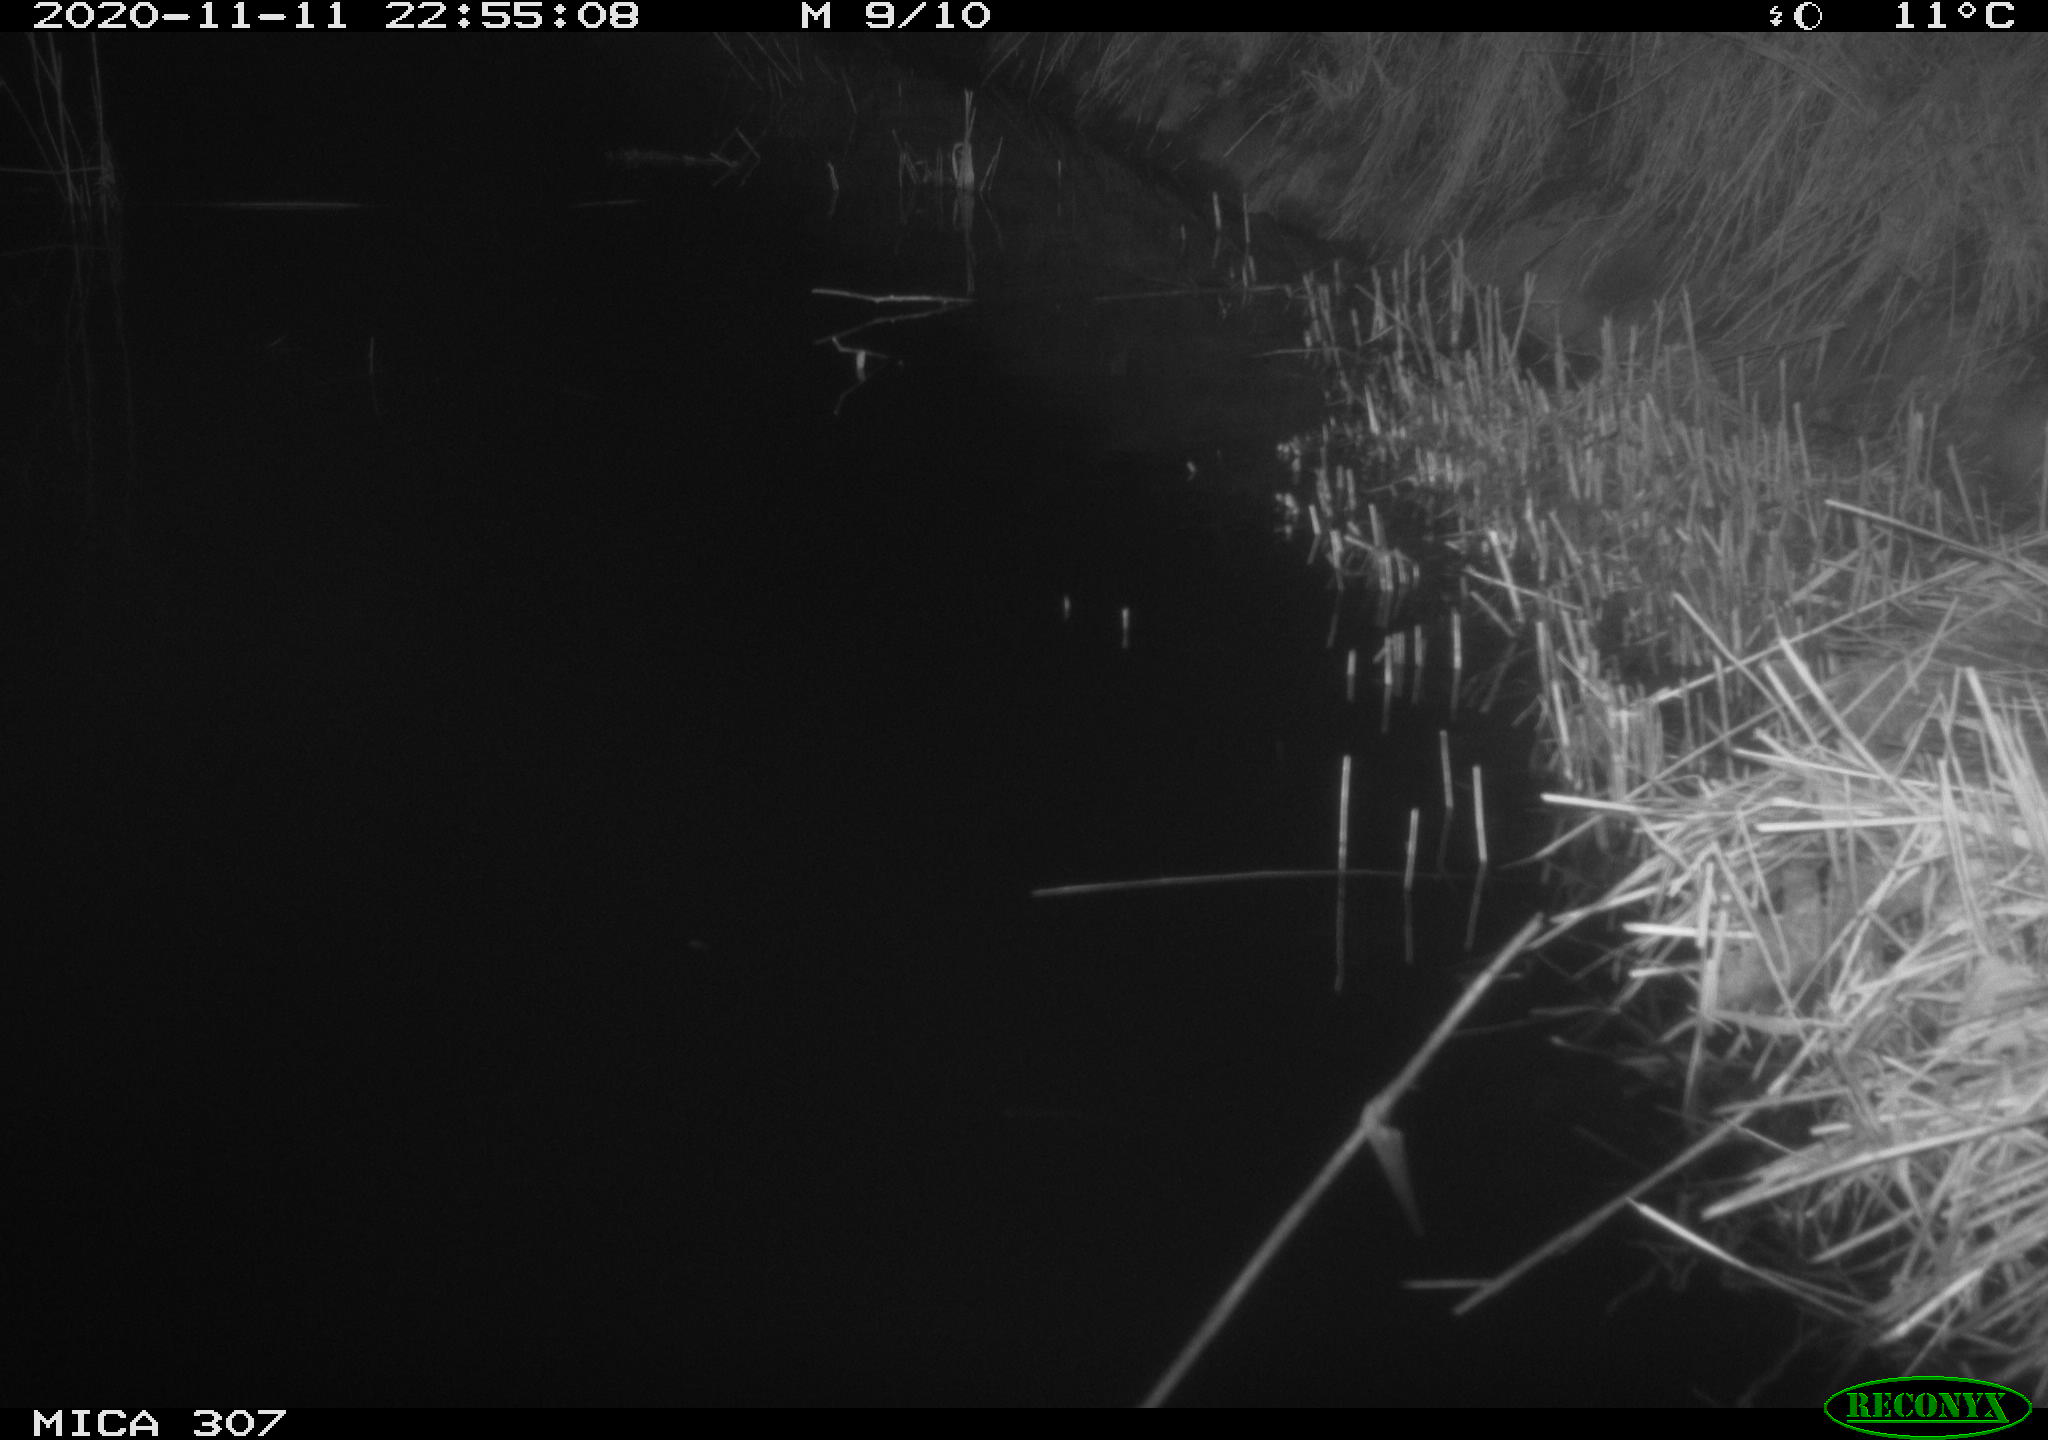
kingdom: Animalia
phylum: Chordata
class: Mammalia
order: Rodentia
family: Muridae
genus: Rattus
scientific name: Rattus norvegicus
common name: Brown rat
